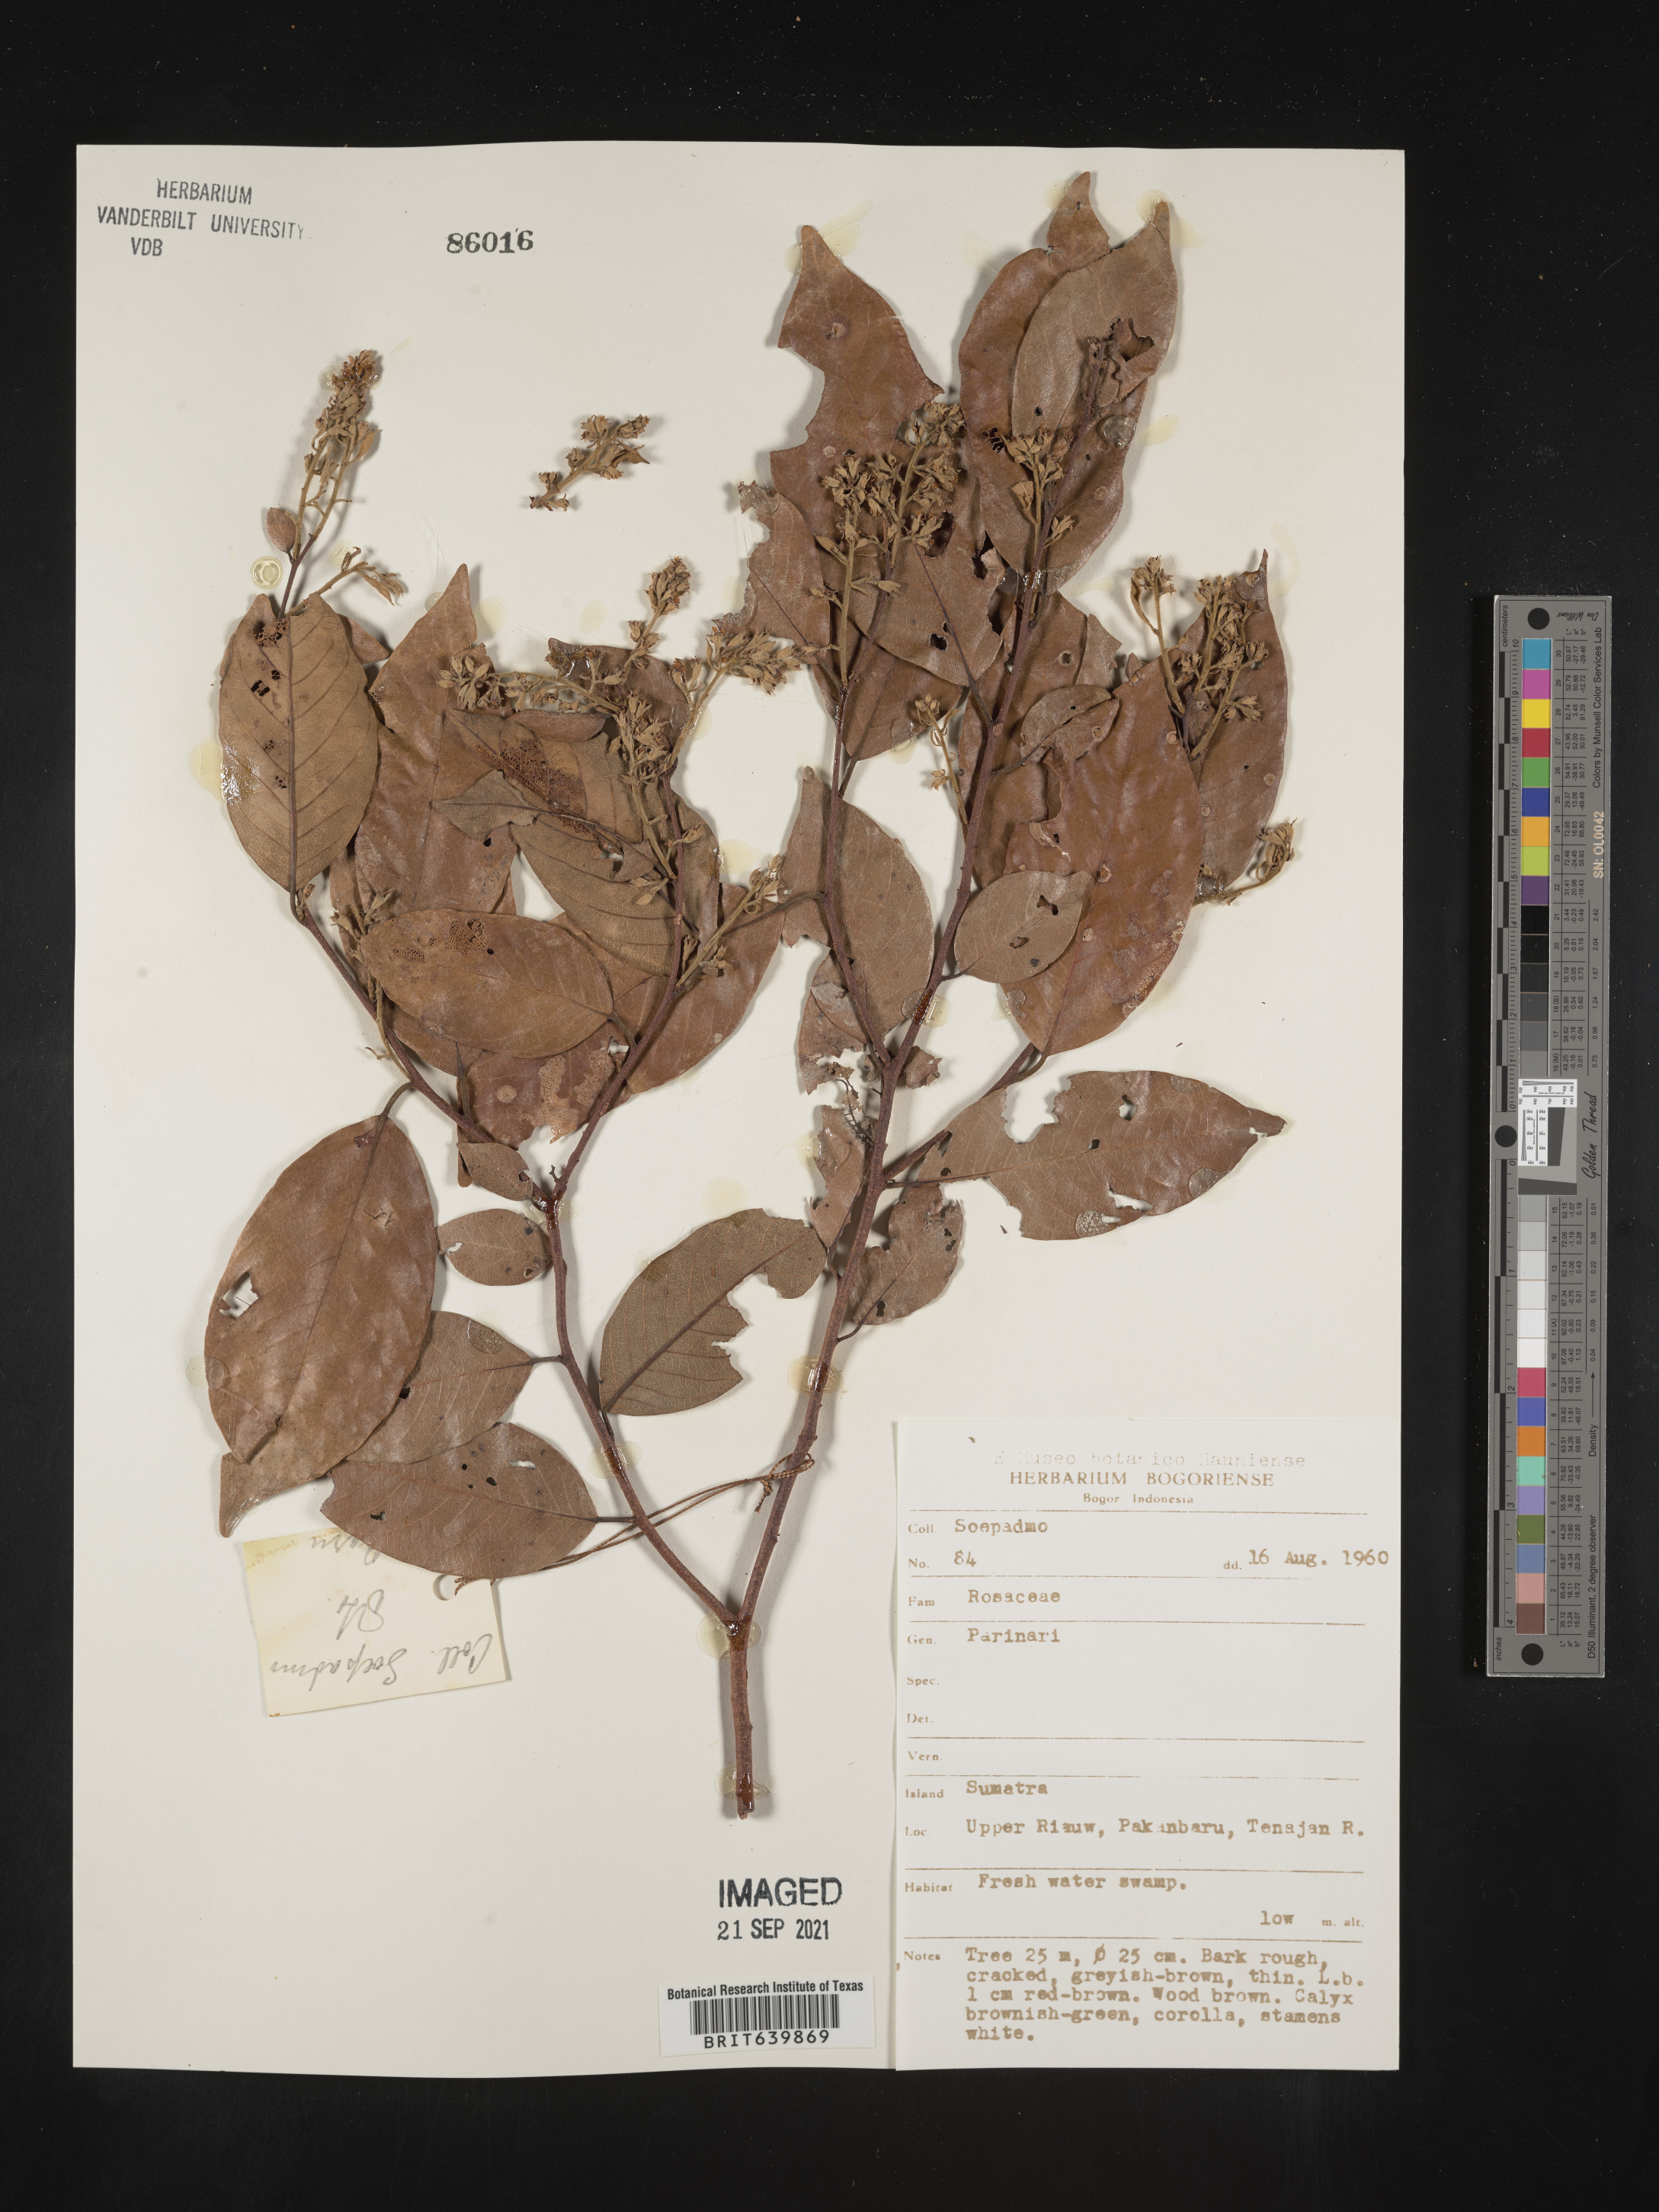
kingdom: Plantae
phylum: Tracheophyta
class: Magnoliopsida
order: Malpighiales
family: Chrysobalanaceae
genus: Parinari
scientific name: Parinari
